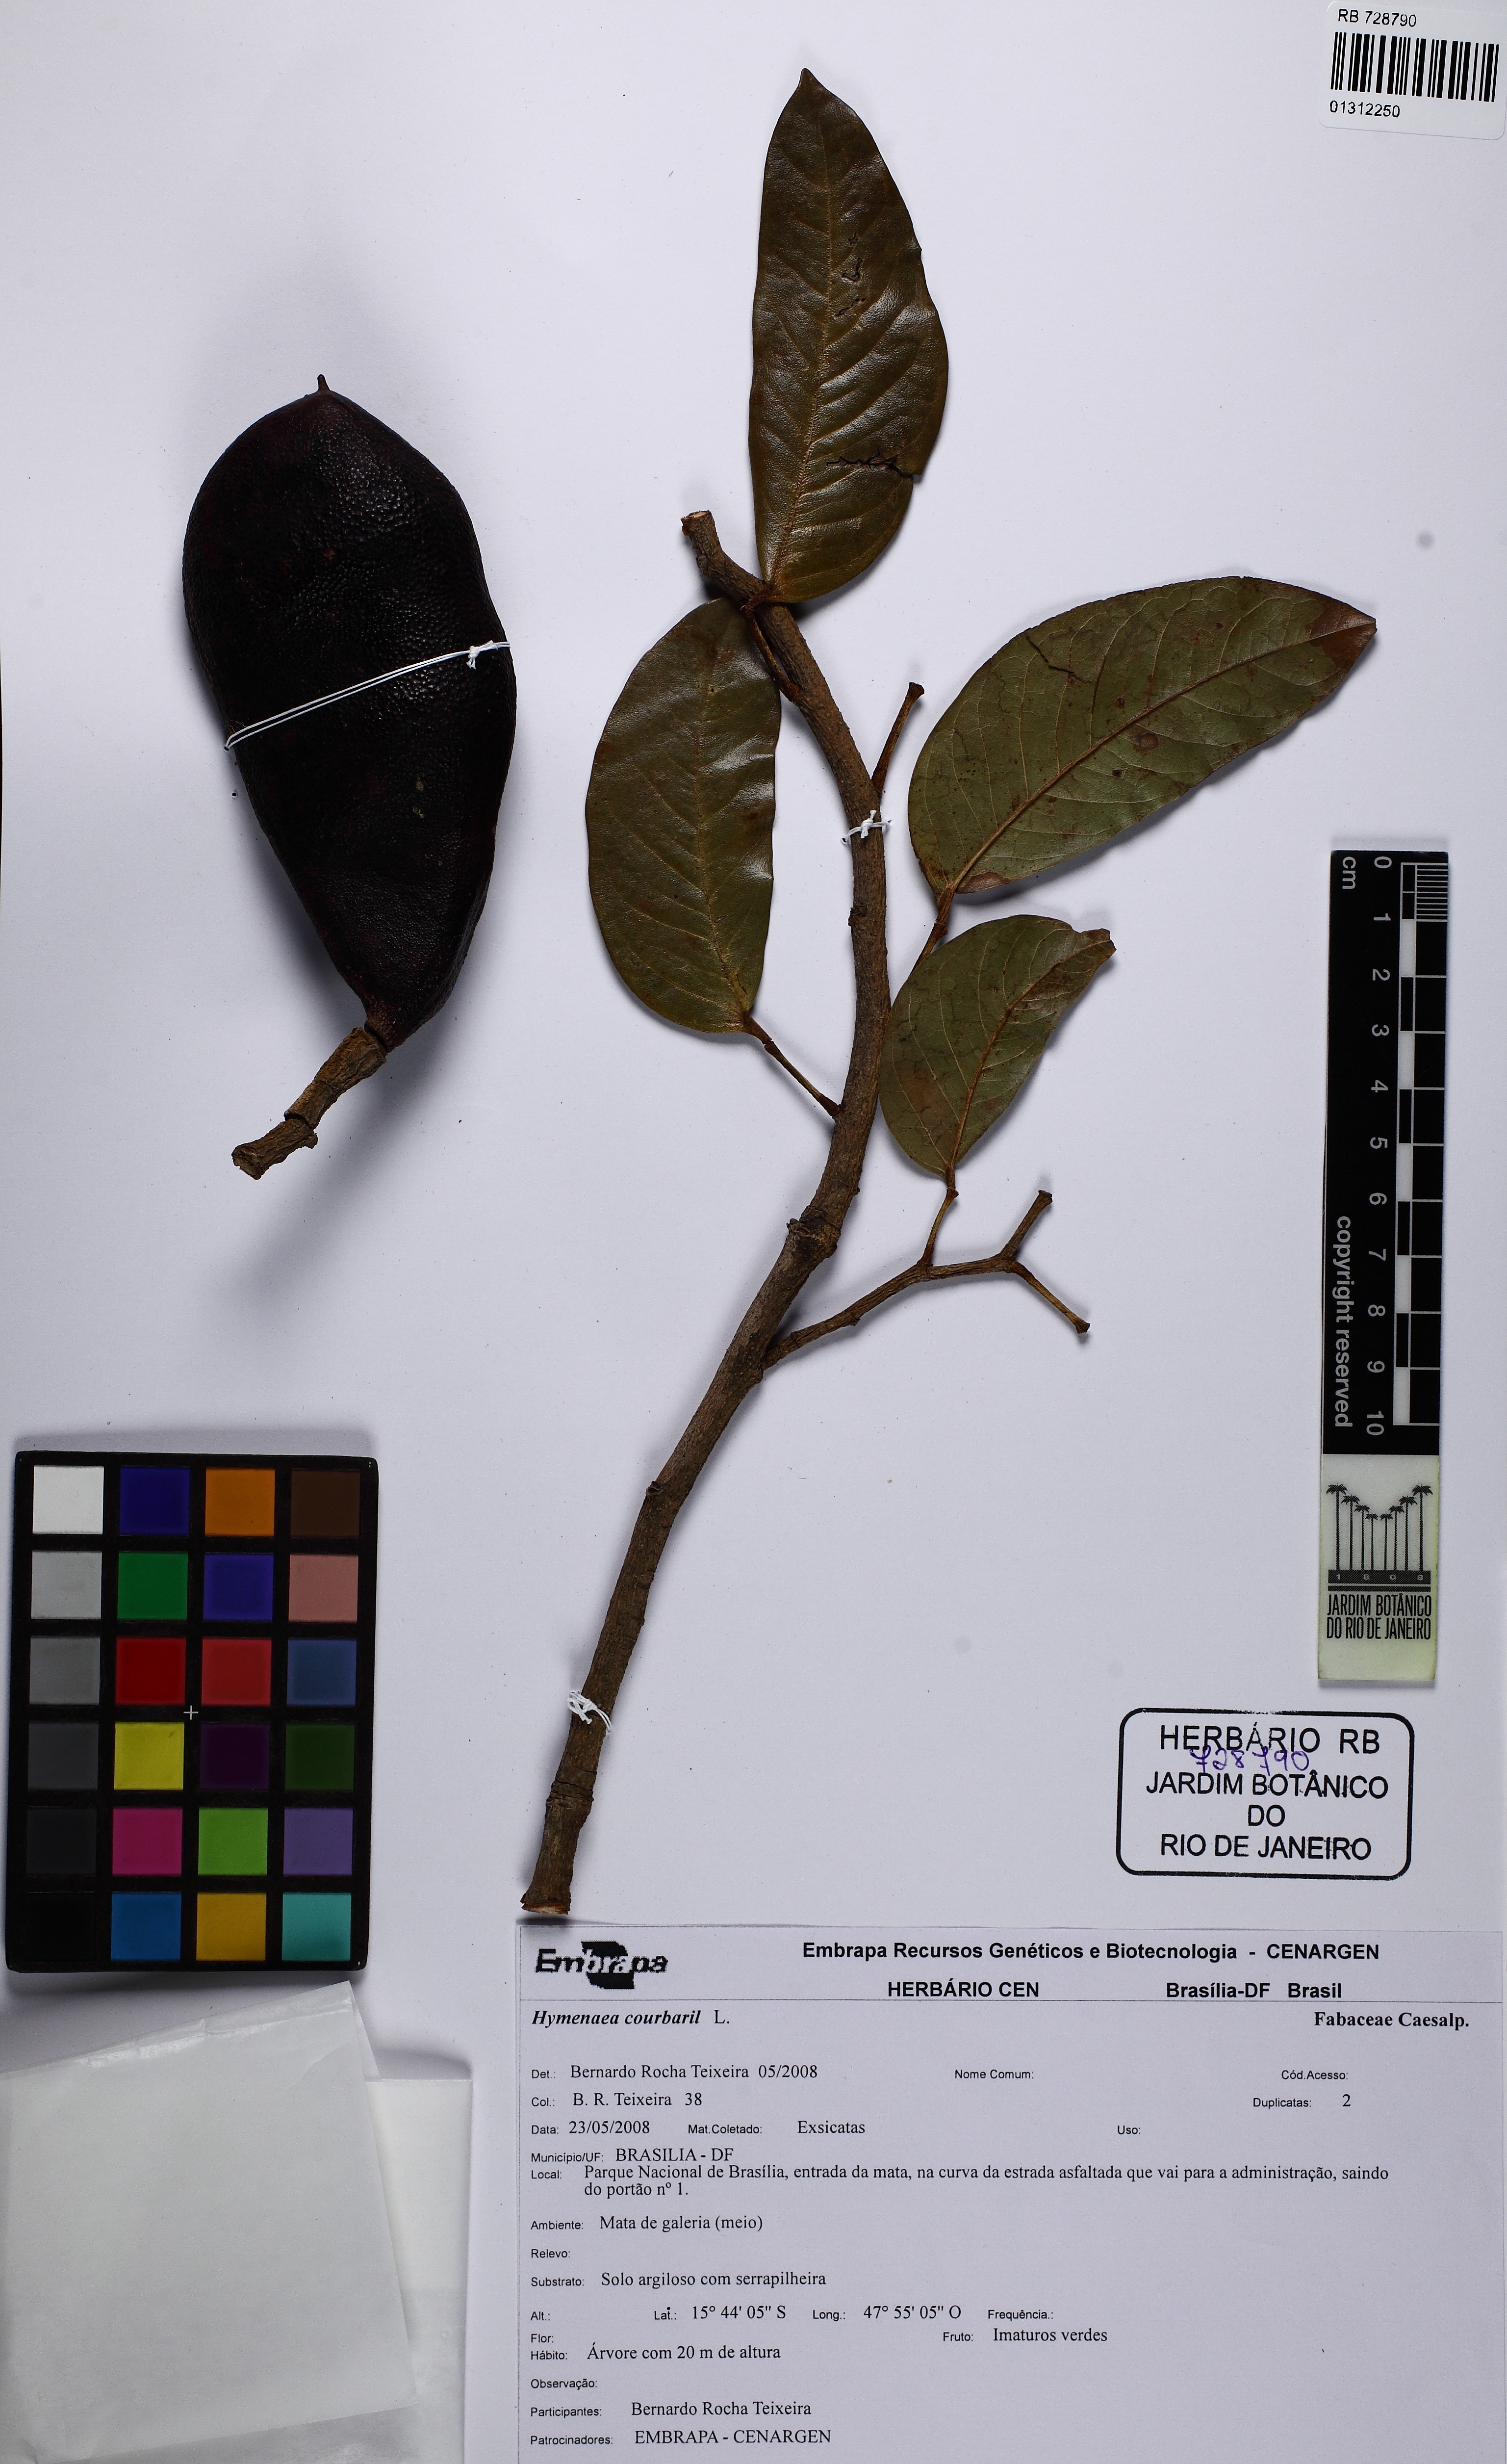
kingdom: Plantae
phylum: Tracheophyta
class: Magnoliopsida
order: Fabales
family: Fabaceae
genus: Hymenaea
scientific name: Hymenaea courbaril
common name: Brazilian copal
